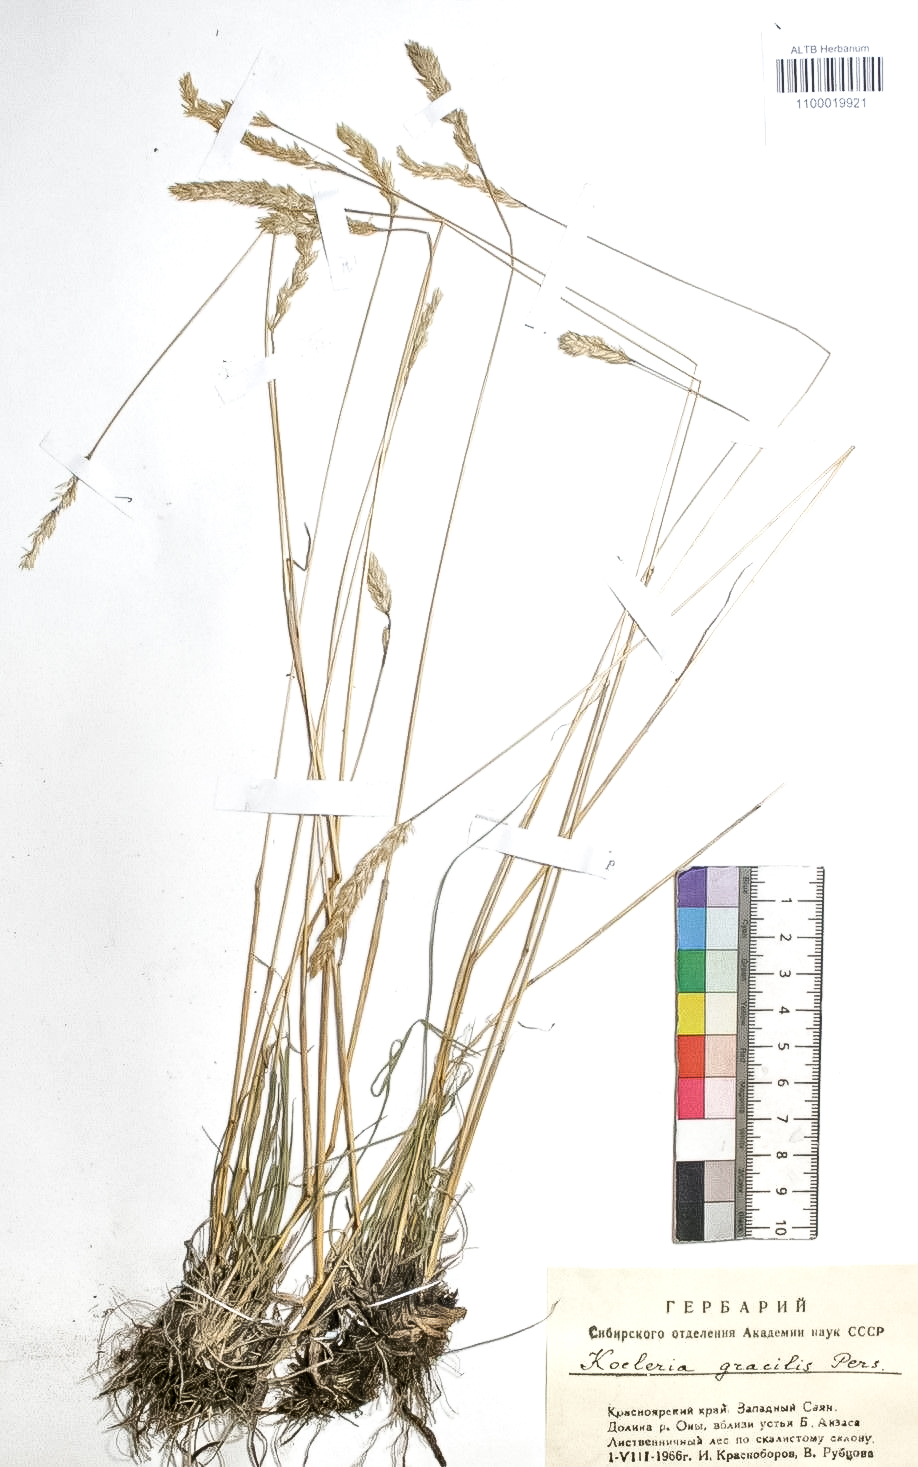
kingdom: Plantae
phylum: Tracheophyta
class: Liliopsida
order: Poales
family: Poaceae
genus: Koeleria
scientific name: Koeleria macrantha
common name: Crested hair-grass
